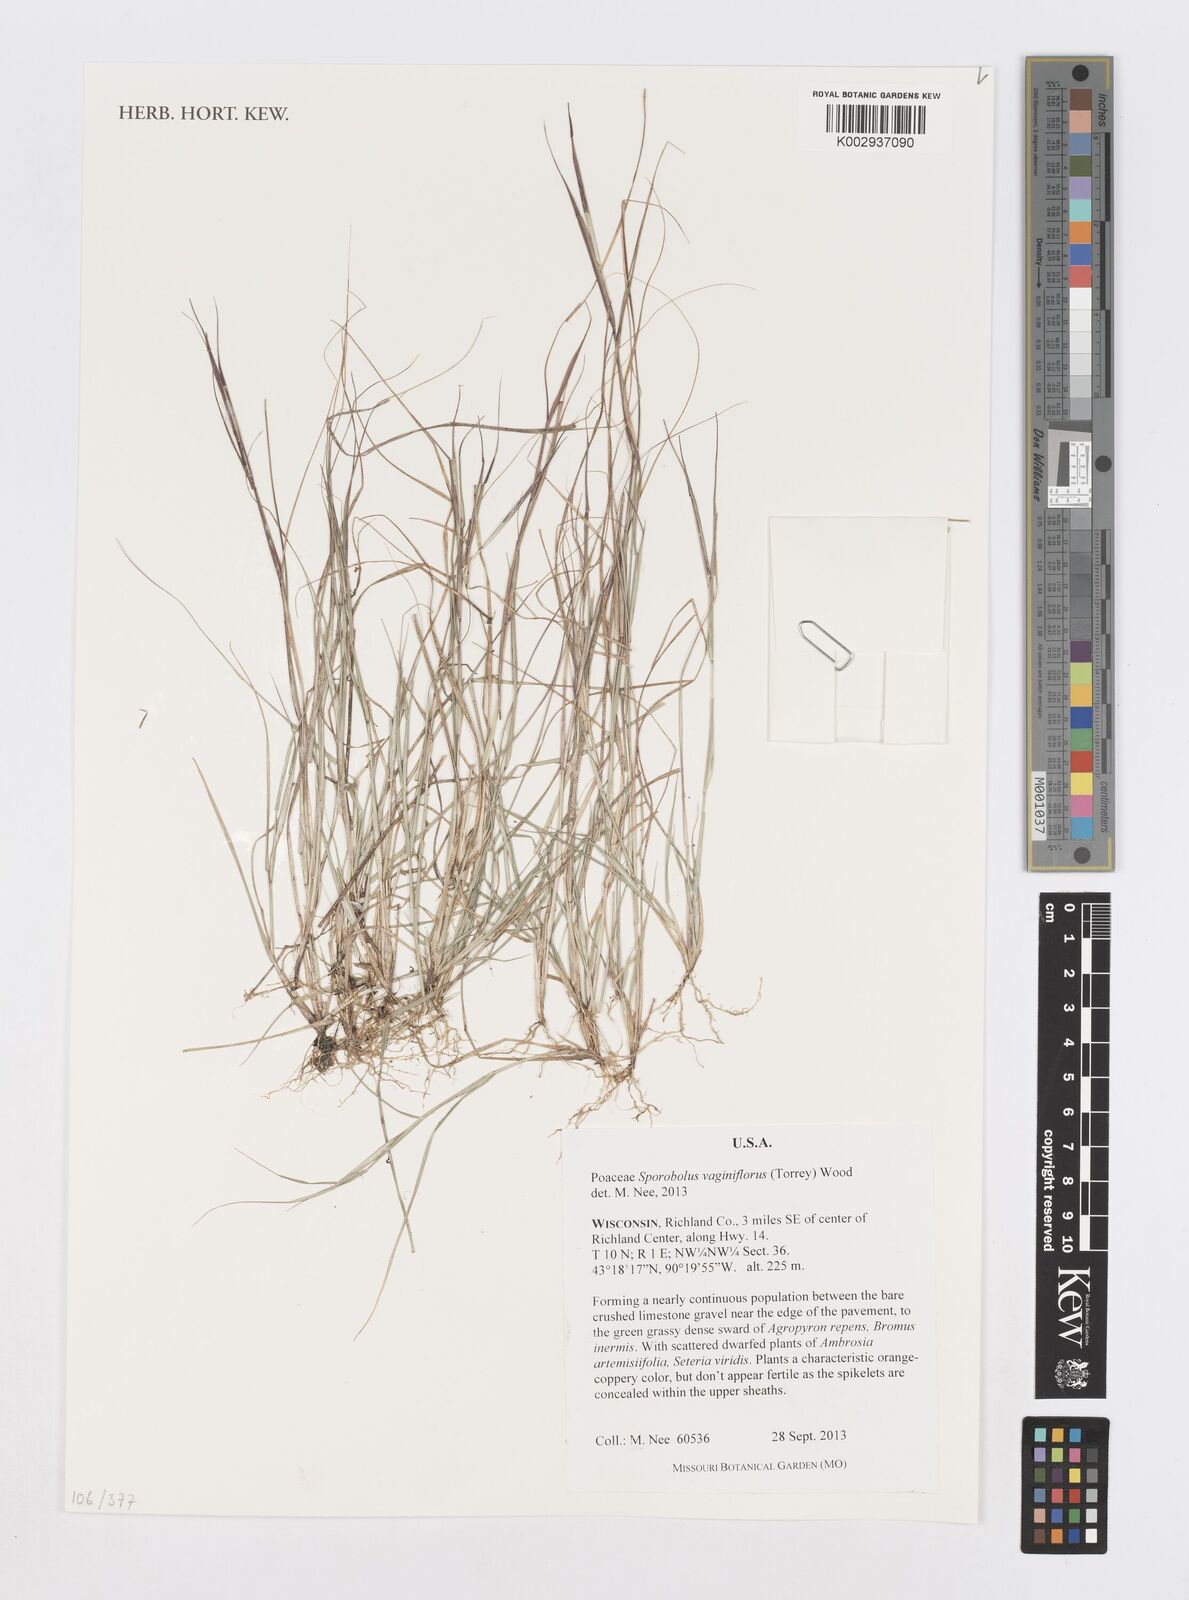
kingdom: Plantae
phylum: Tracheophyta
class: Liliopsida
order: Poales
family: Poaceae
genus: Sporobolus
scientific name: Sporobolus vaginiflorus
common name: Poverty dropseed
